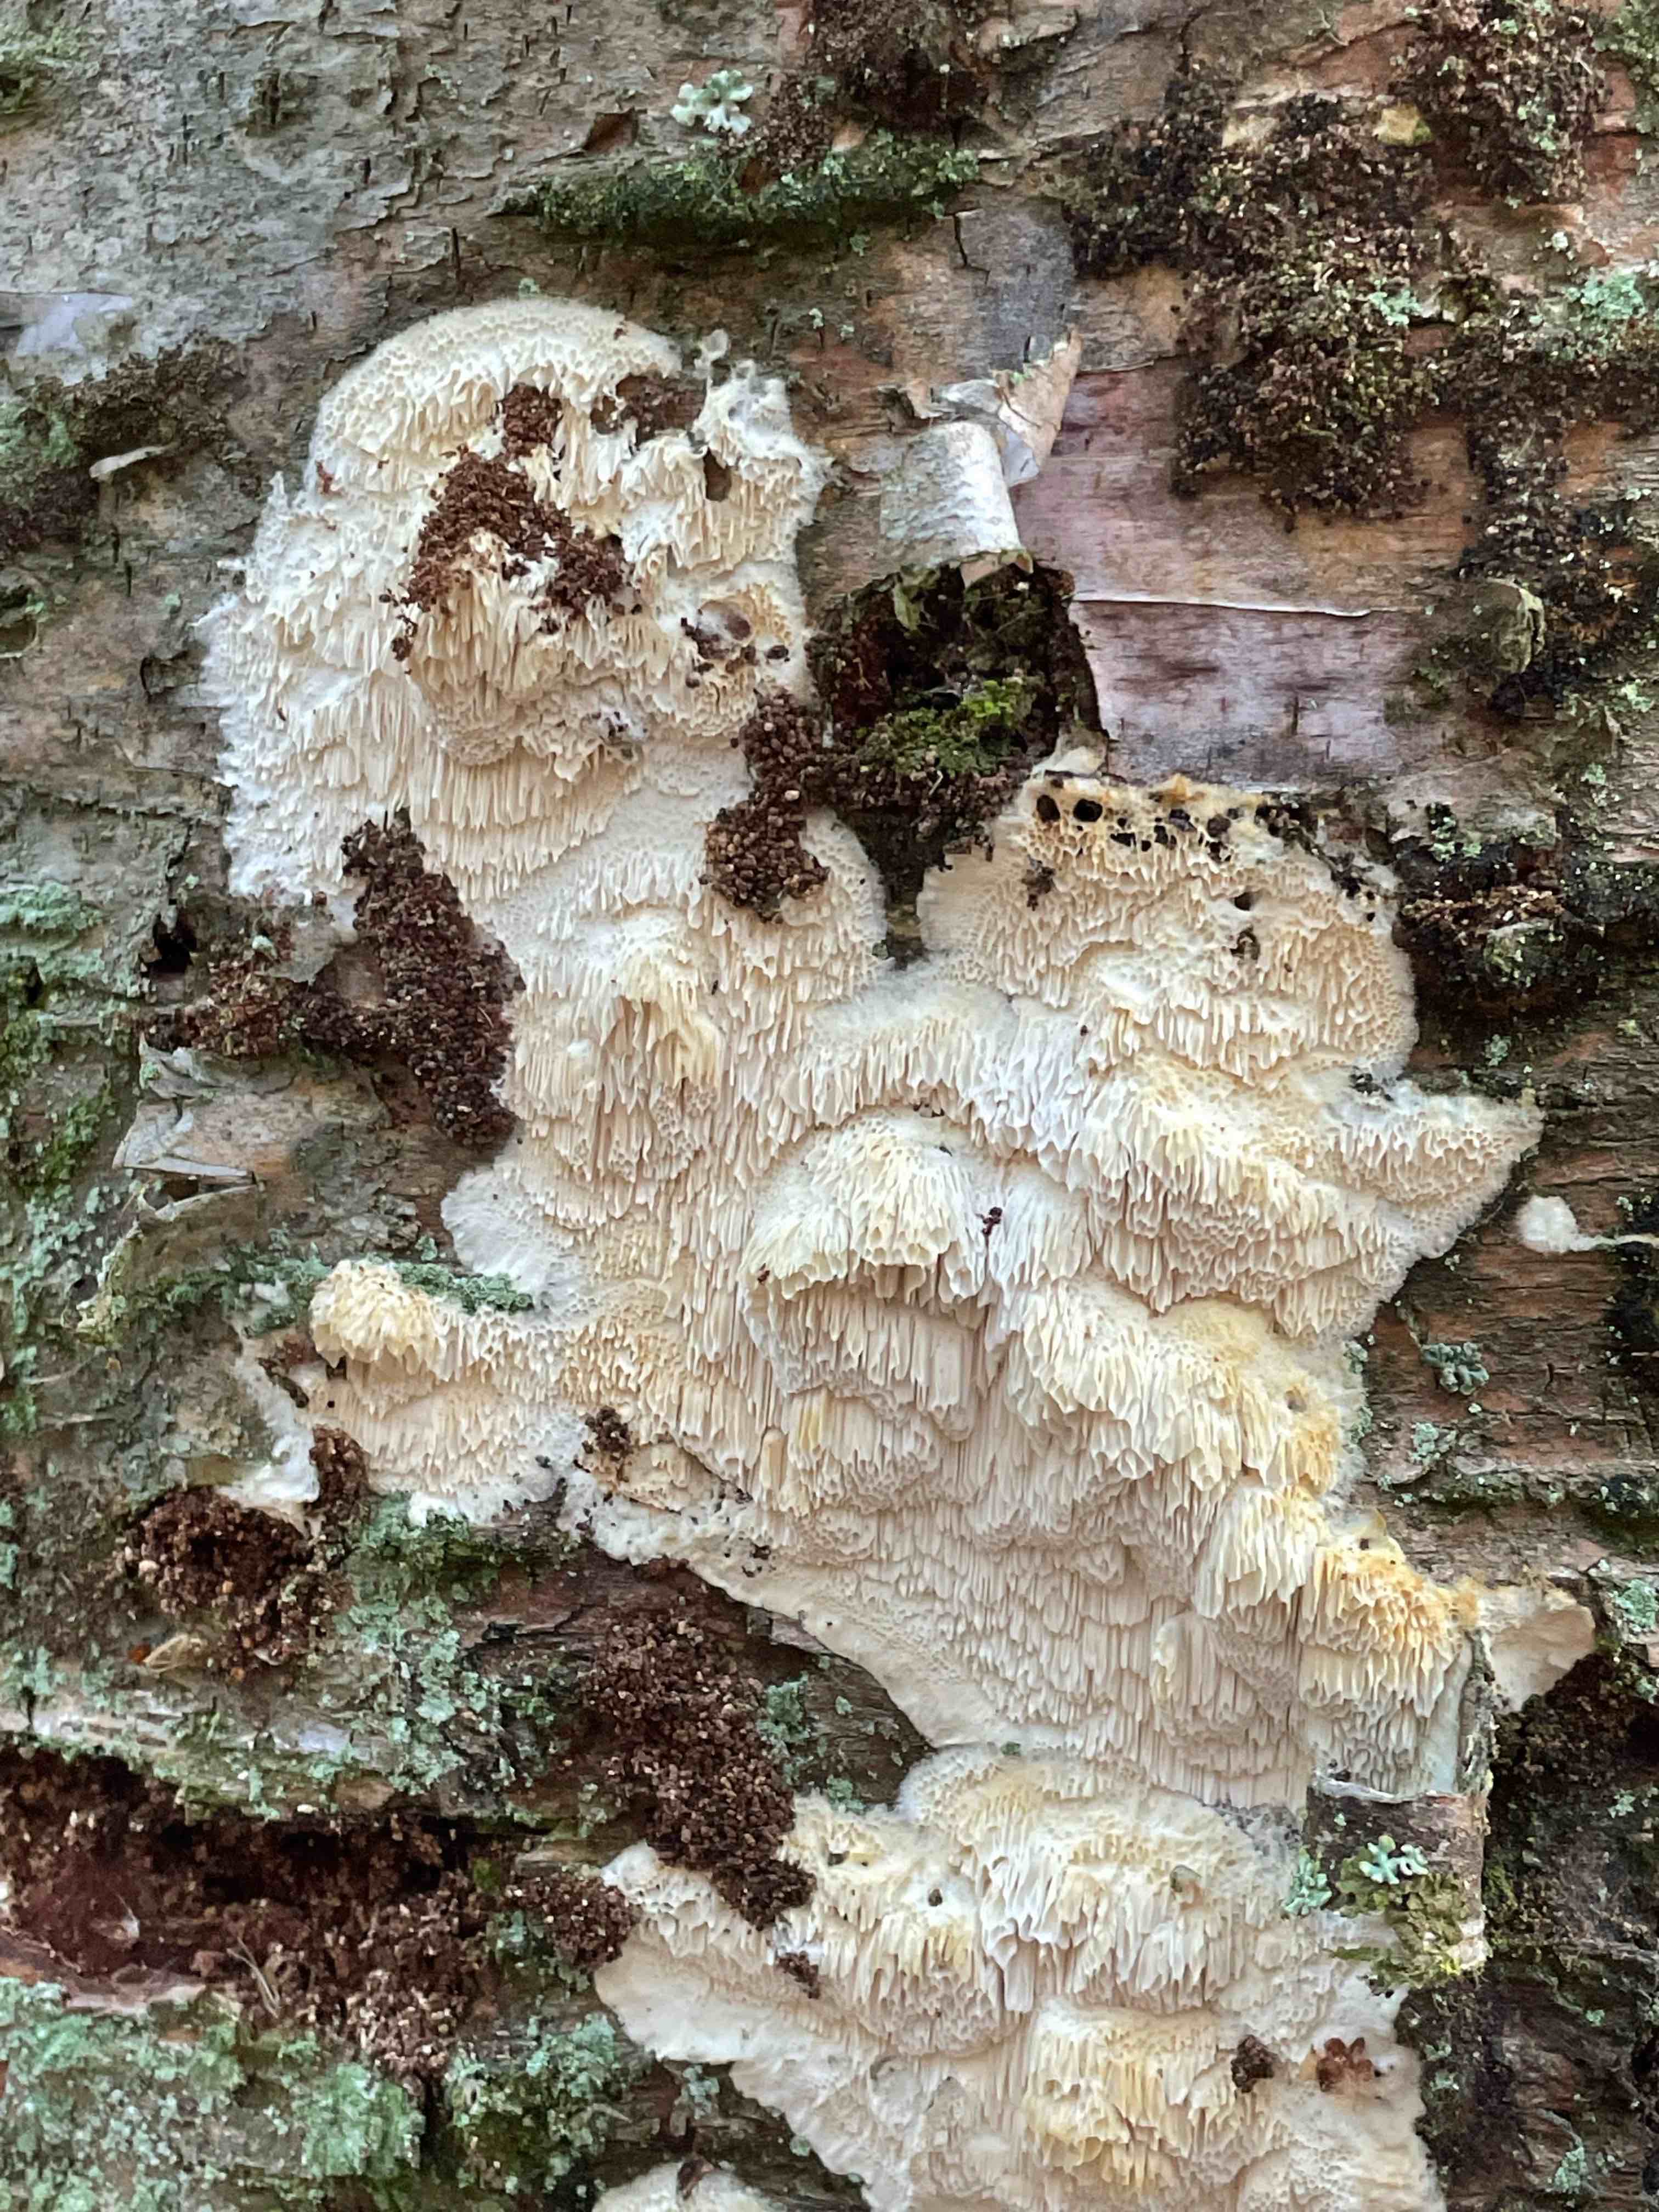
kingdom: Fungi
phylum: Basidiomycota
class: Agaricomycetes
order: Polyporales
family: Irpicaceae
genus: Irpex
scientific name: Irpex latemarginatus
